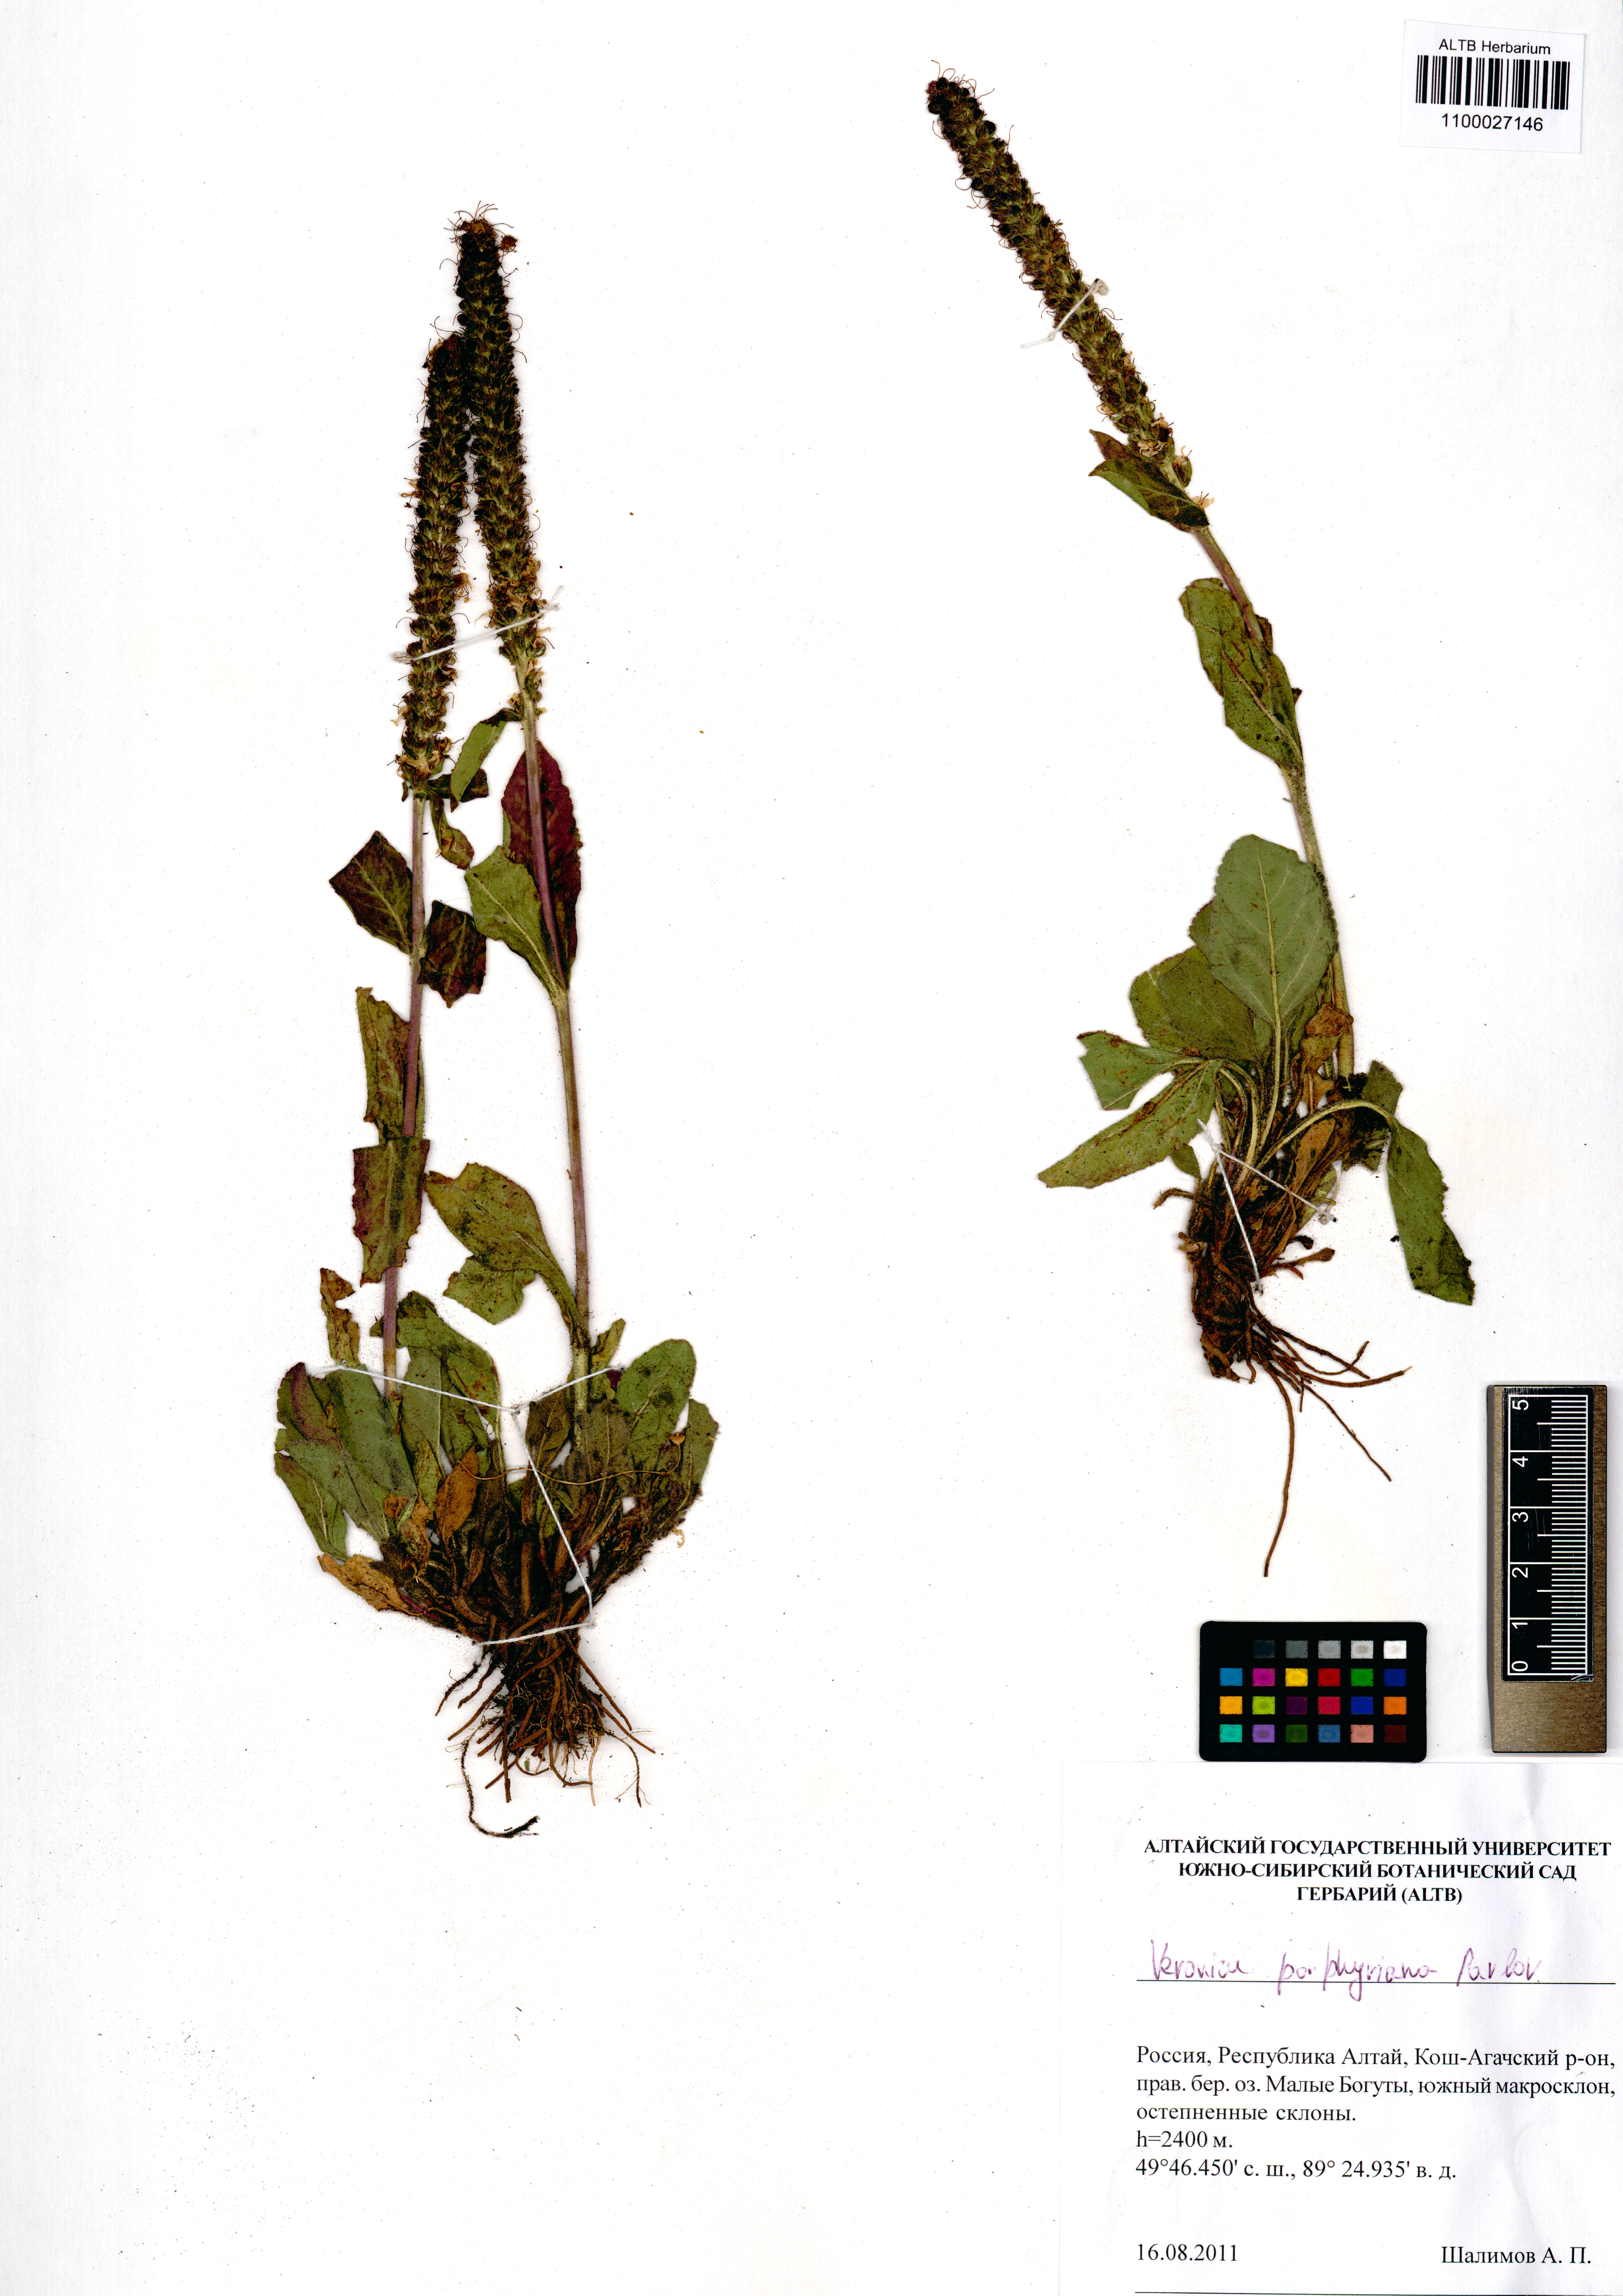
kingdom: Plantae
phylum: Tracheophyta
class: Magnoliopsida
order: Lamiales
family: Plantaginaceae
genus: Veronica
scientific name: Veronica porphyriana
